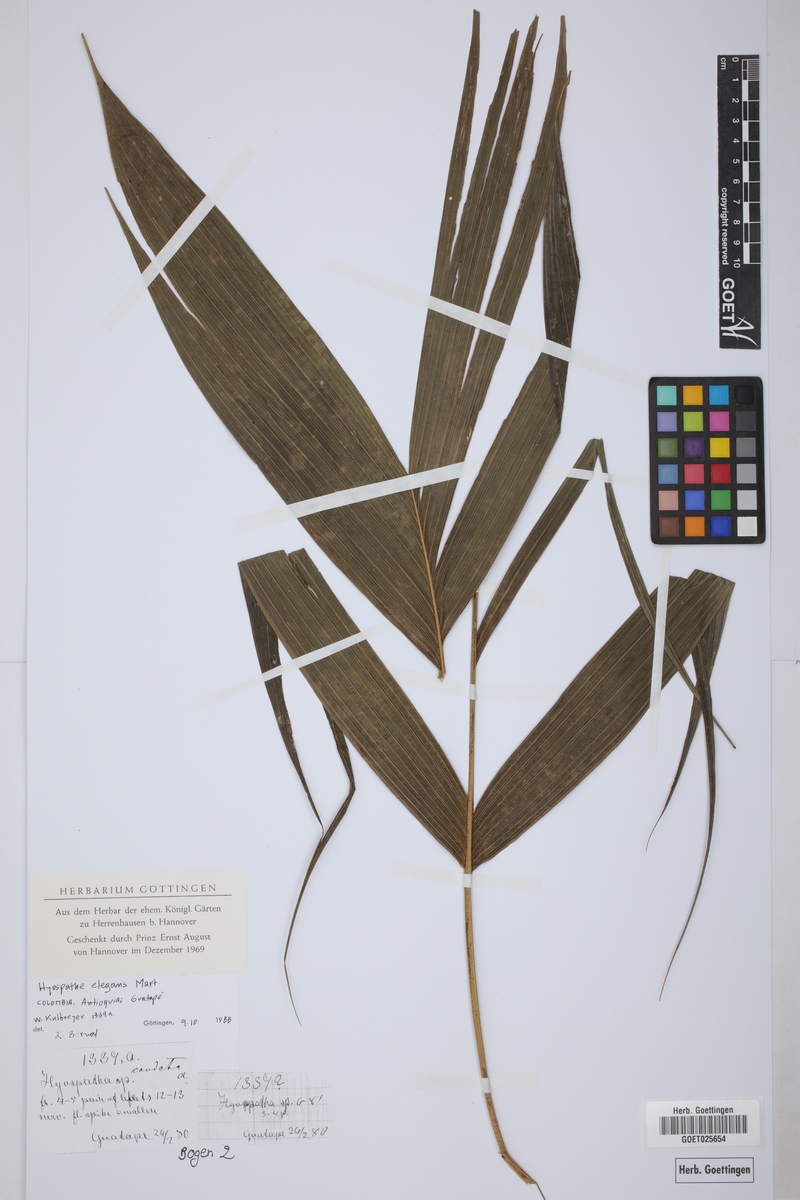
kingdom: Plantae
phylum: Tracheophyta
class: Liliopsida
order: Arecales
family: Arecaceae
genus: Hyospathe
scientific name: Hyospathe elegans
